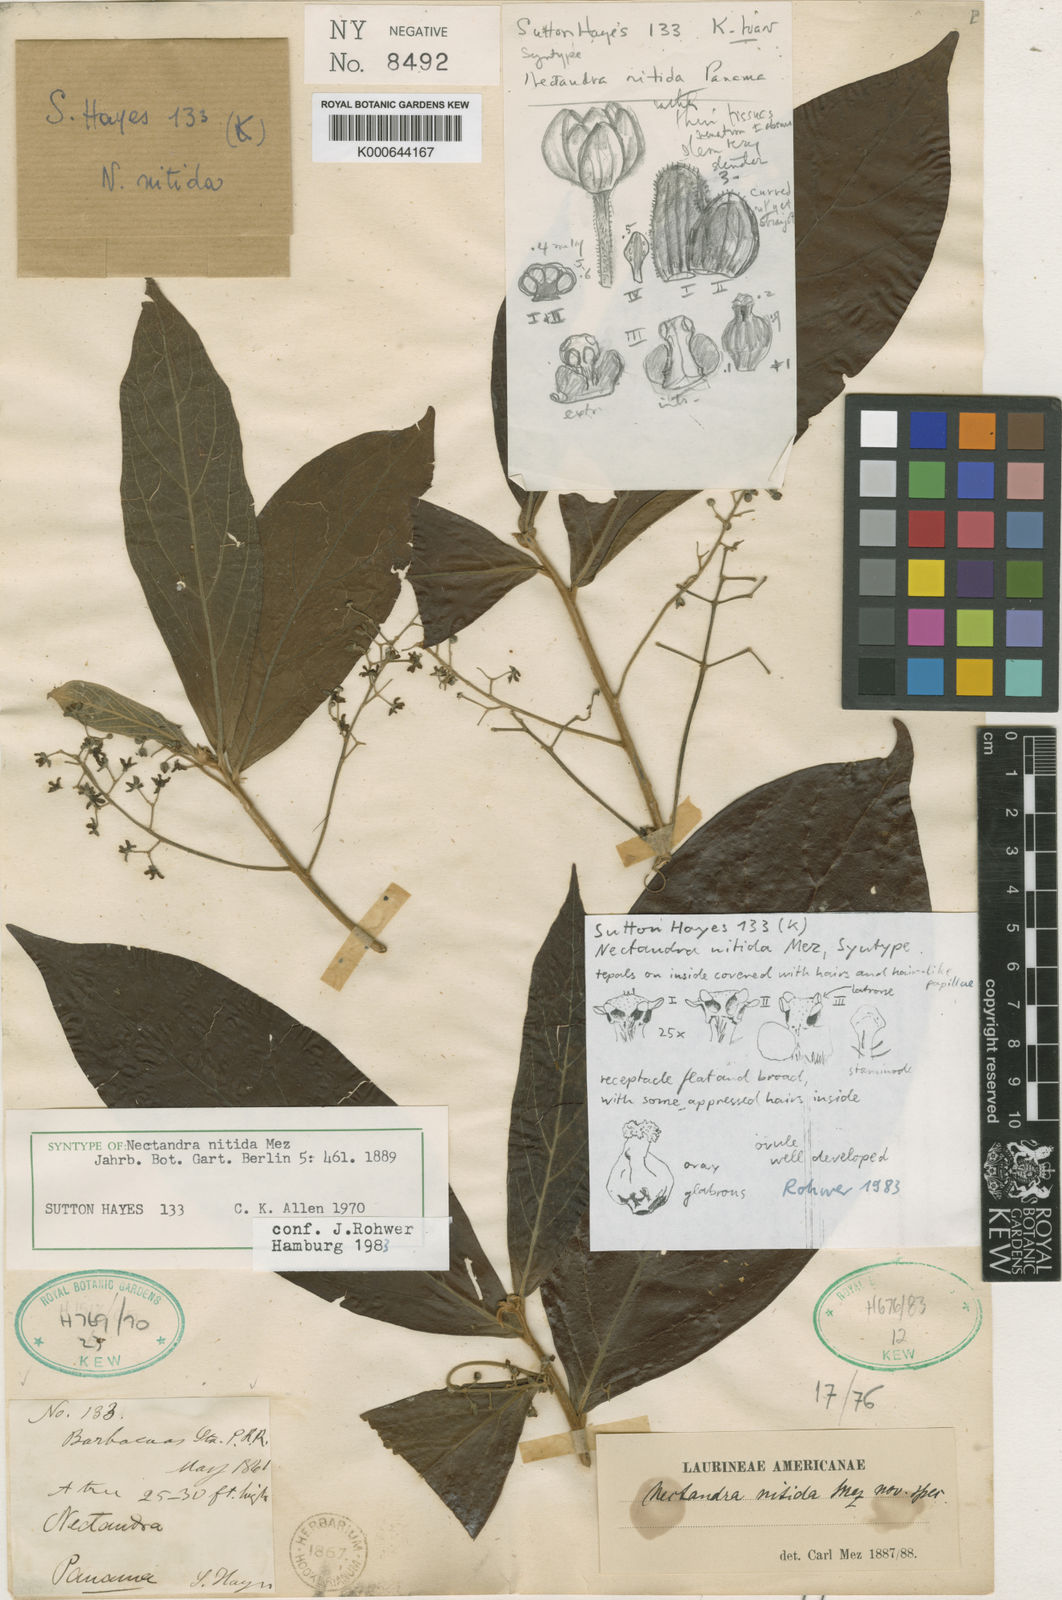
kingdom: Plantae
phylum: Tracheophyta
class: Magnoliopsida
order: Laurales
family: Lauraceae
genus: Damburneya
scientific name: Damburneya nitida
